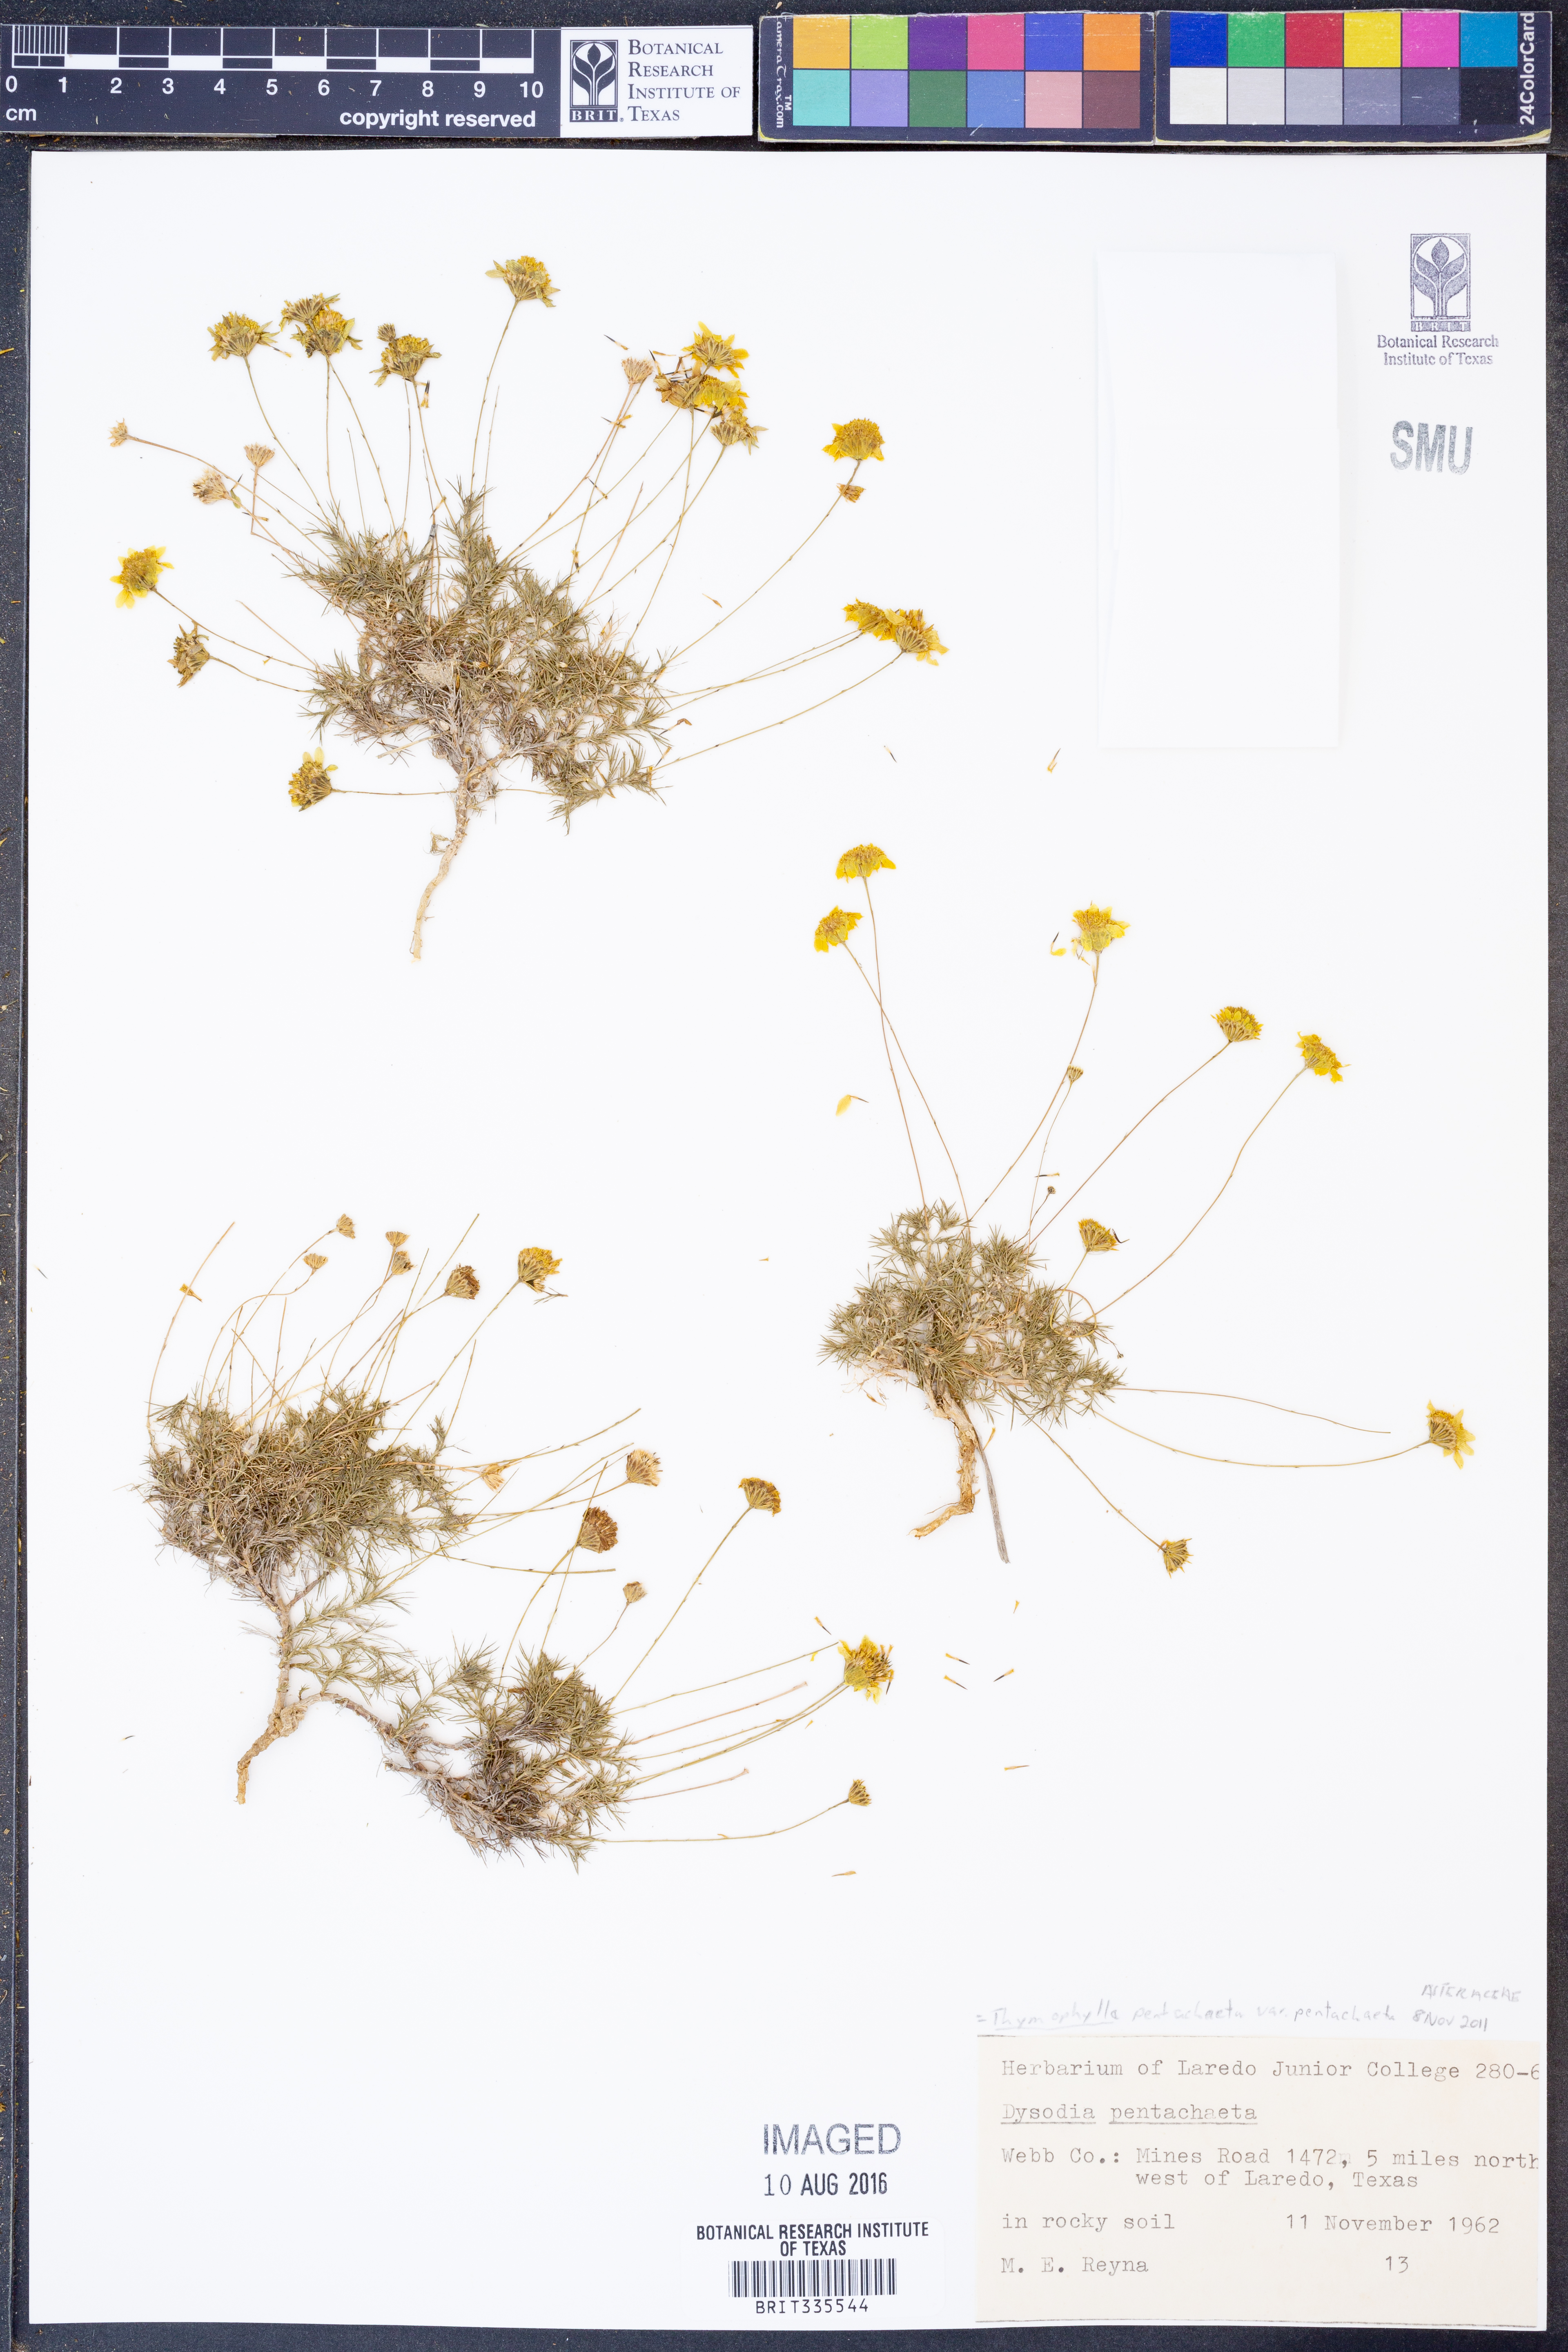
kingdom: Plantae
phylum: Tracheophyta
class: Magnoliopsida
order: Asterales
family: Asteraceae
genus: Thymophylla
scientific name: Thymophylla pentachaeta
